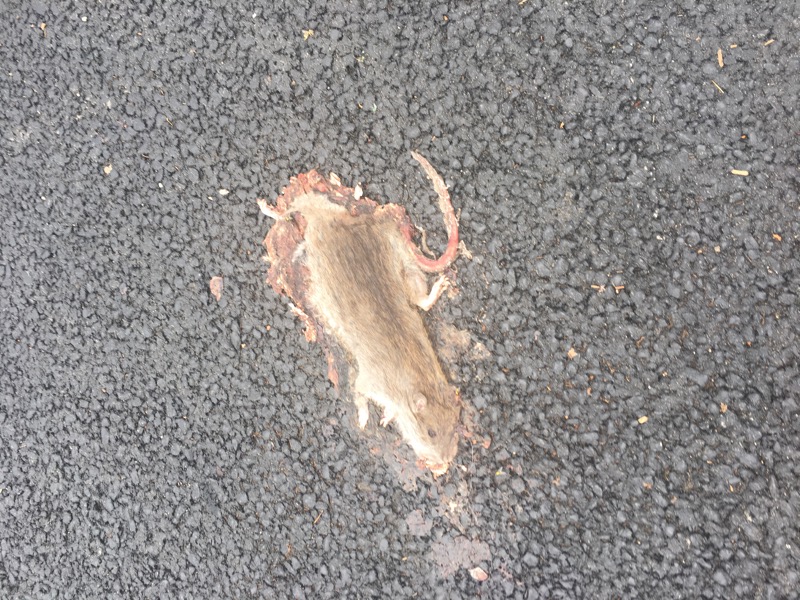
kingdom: Animalia
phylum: Chordata
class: Mammalia
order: Rodentia
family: Muridae
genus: Rattus
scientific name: Rattus
